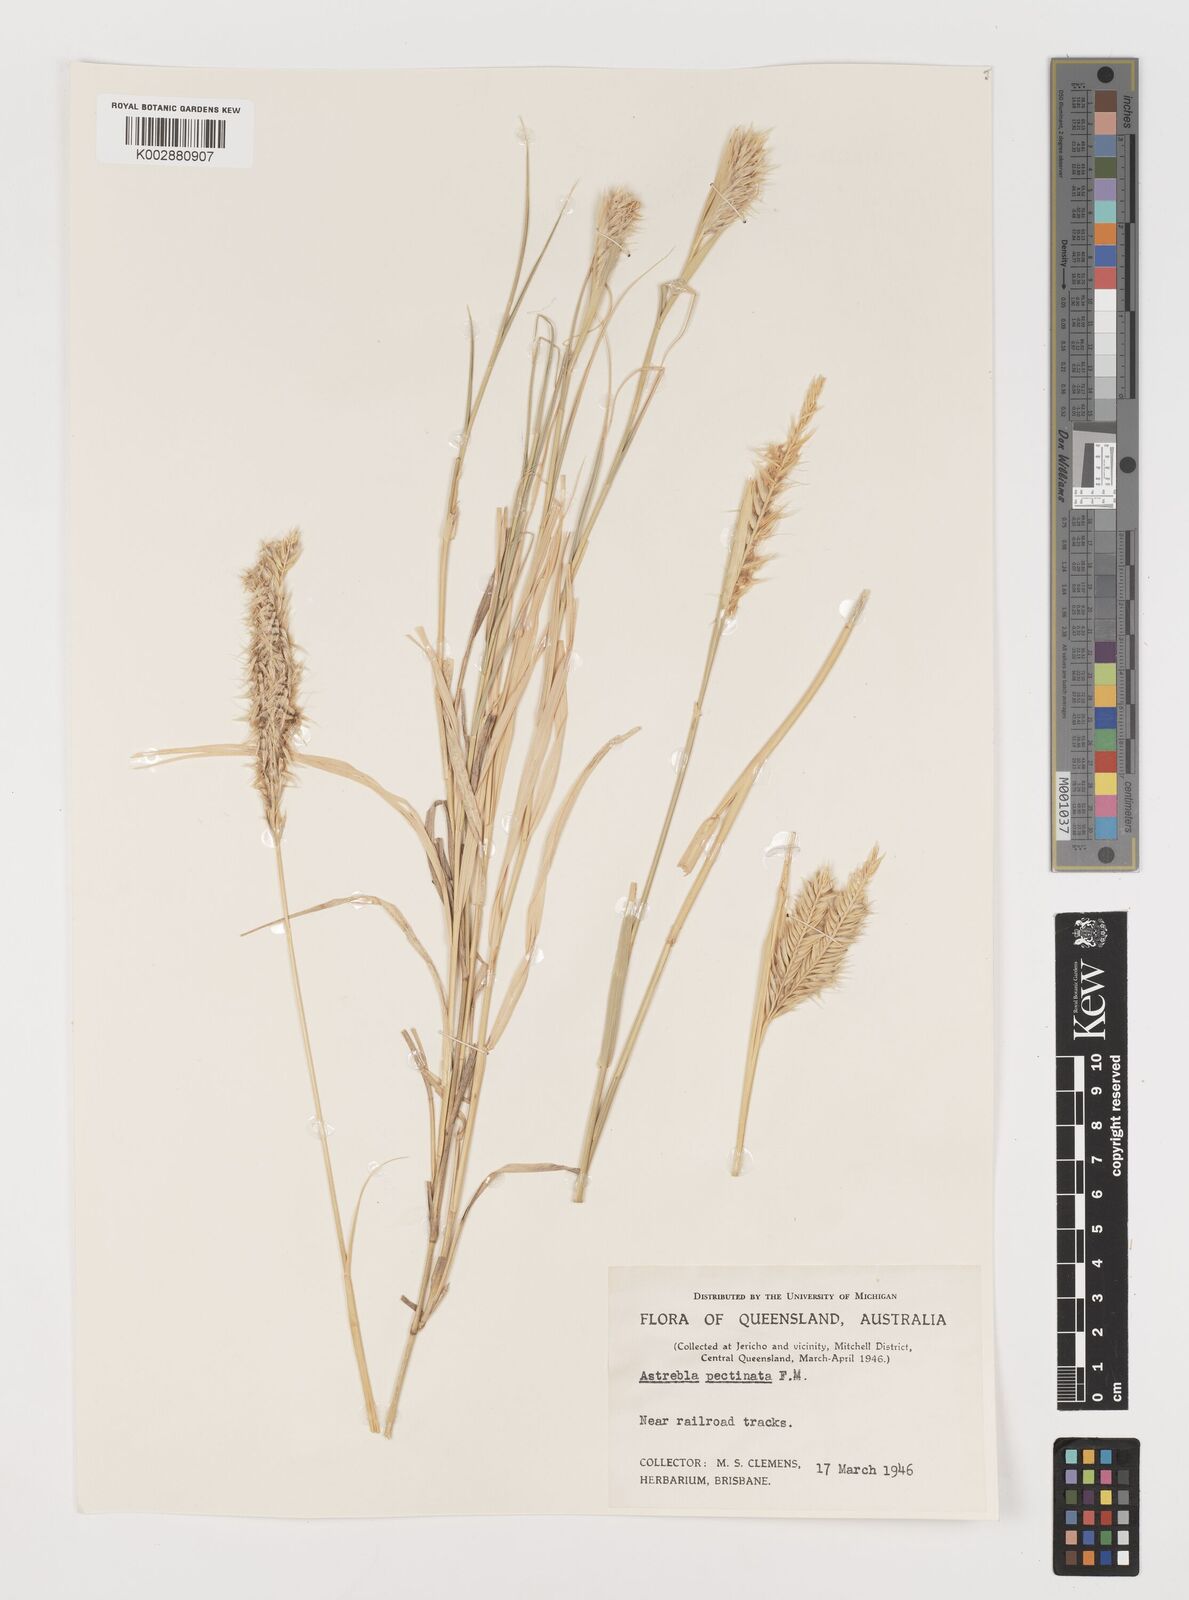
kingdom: Plantae
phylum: Tracheophyta
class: Liliopsida
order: Poales
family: Poaceae
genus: Astrebla
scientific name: Astrebla pectinata
